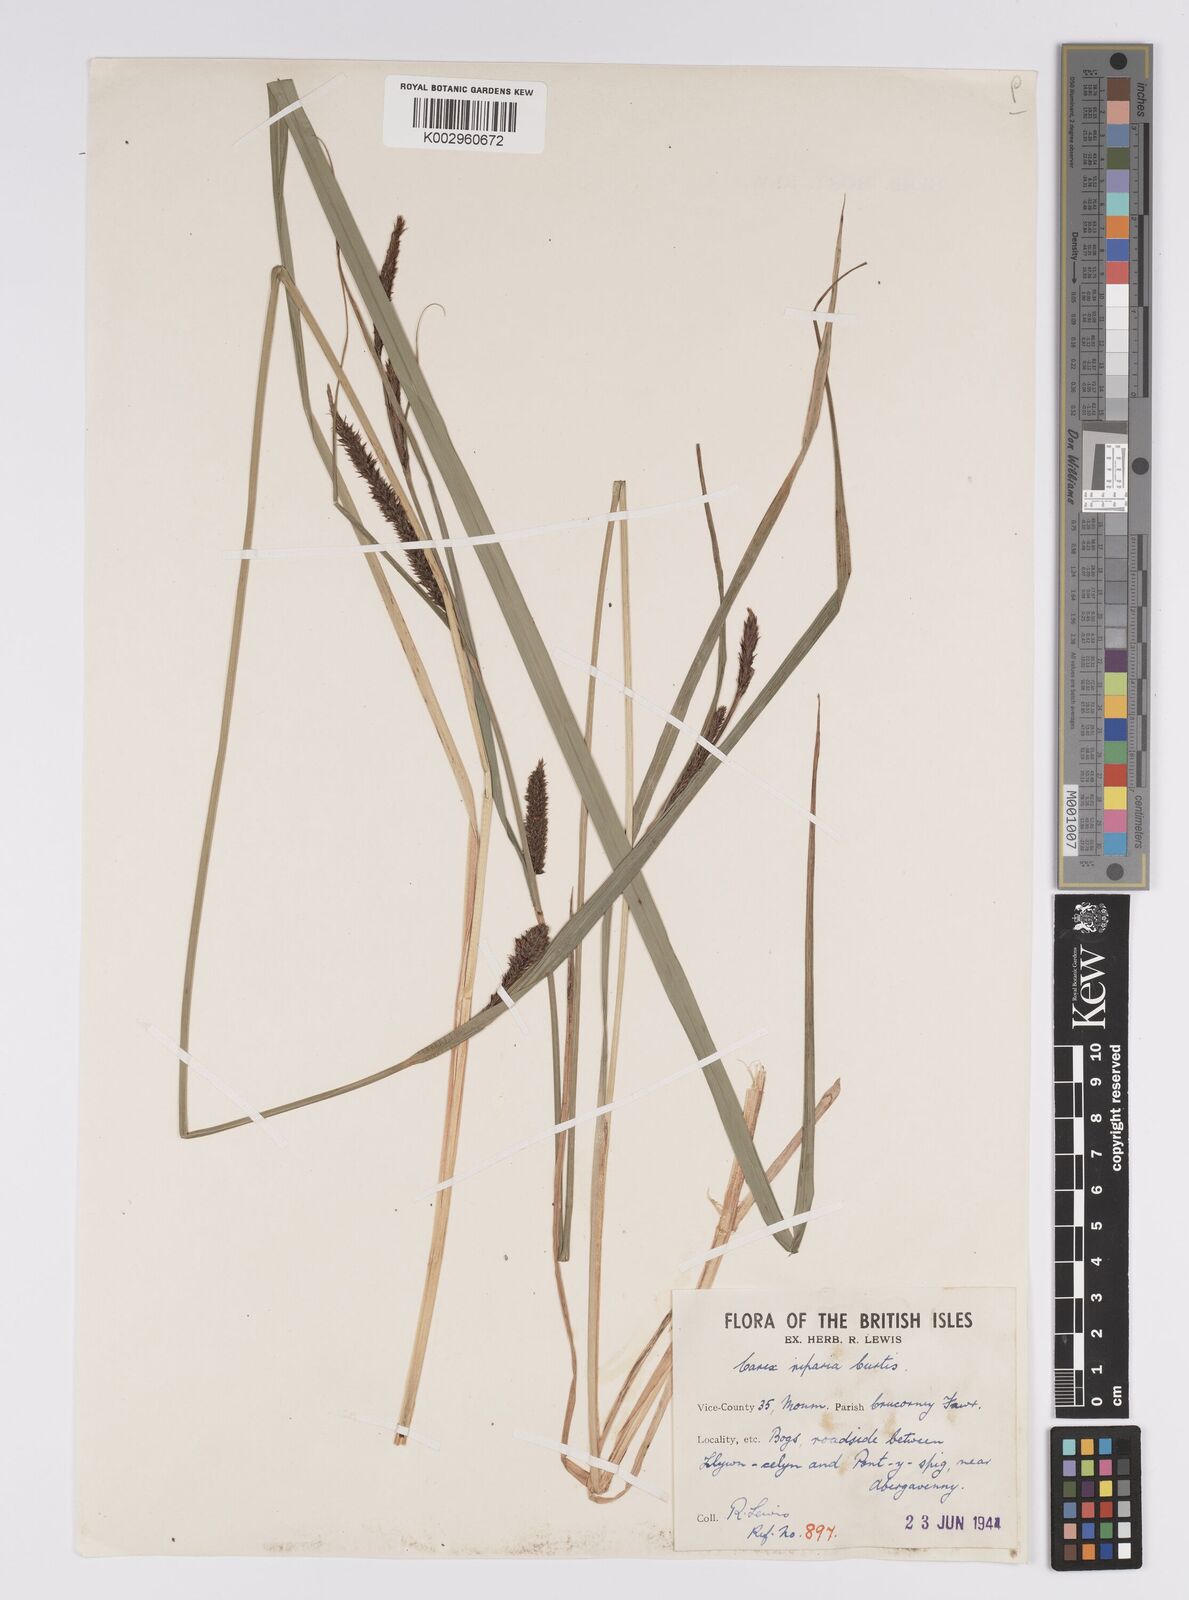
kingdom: Plantae
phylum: Tracheophyta
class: Liliopsida
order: Poales
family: Cyperaceae
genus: Carex
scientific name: Carex acutiformis
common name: Lesser pond-sedge
